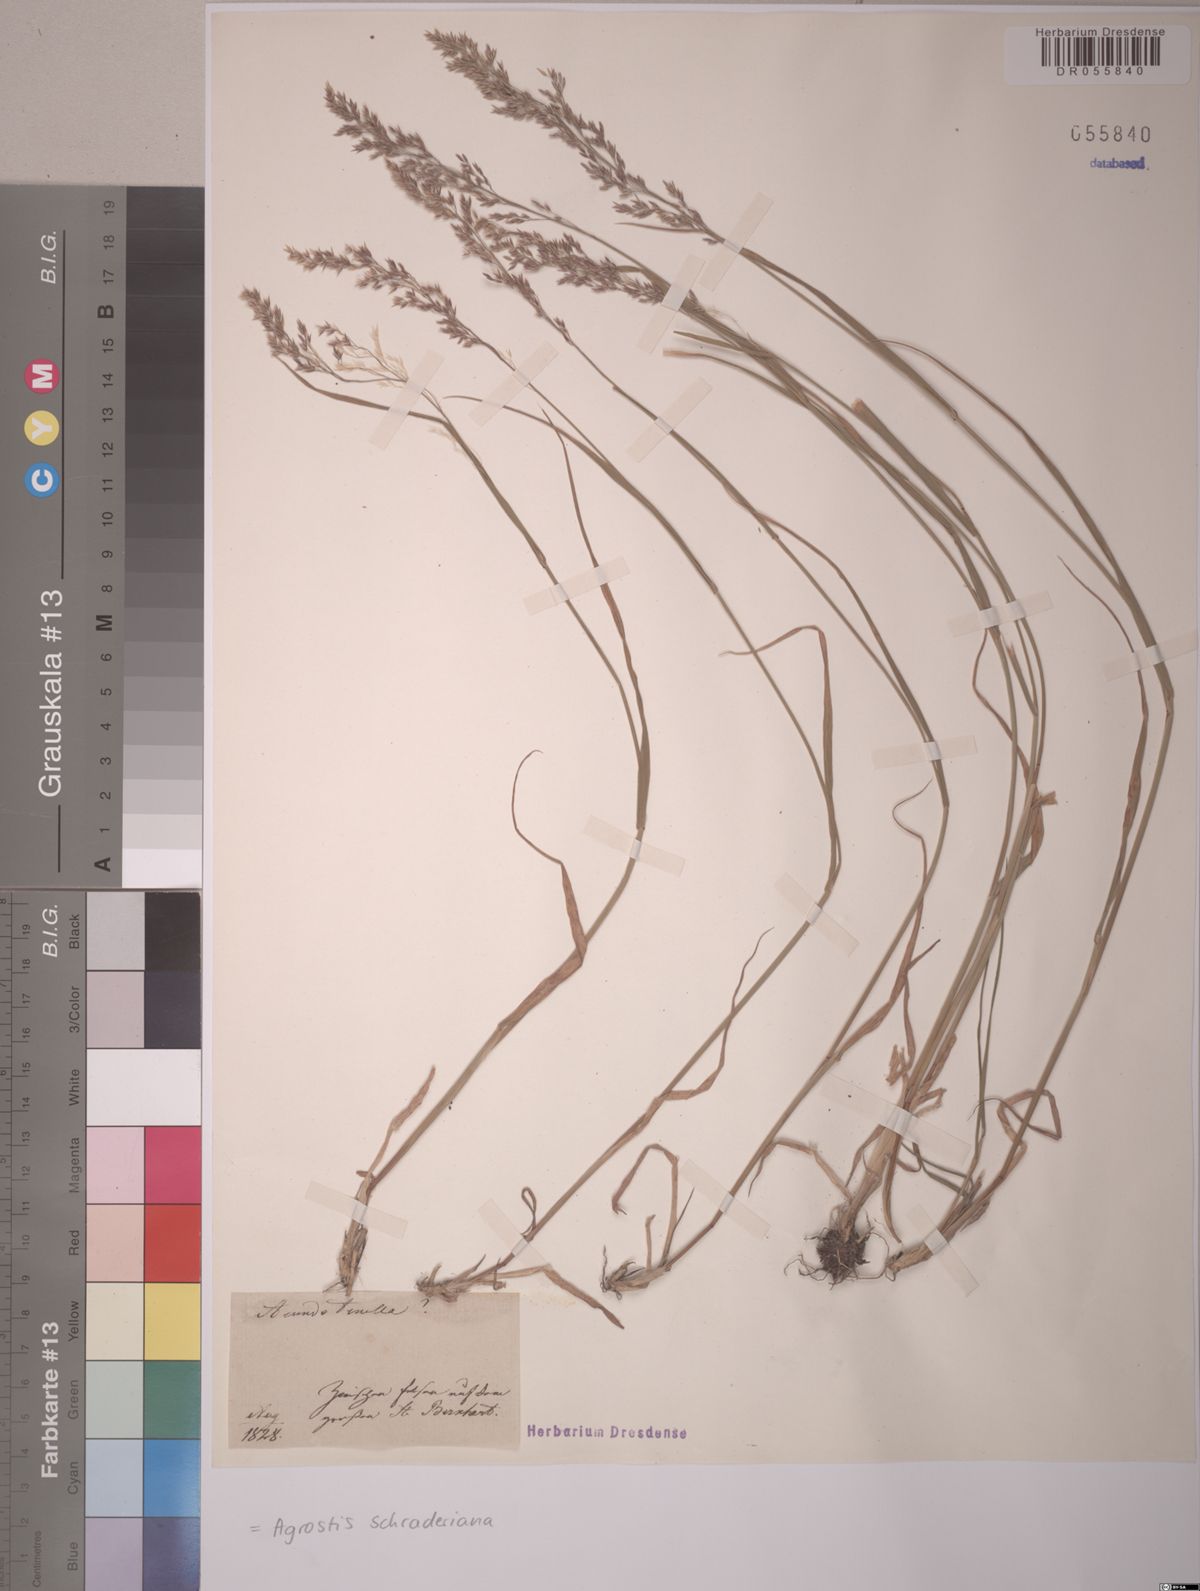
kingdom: Plantae
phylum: Tracheophyta
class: Liliopsida
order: Poales
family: Poaceae
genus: Agrostis
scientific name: Agrostis schraderiana
